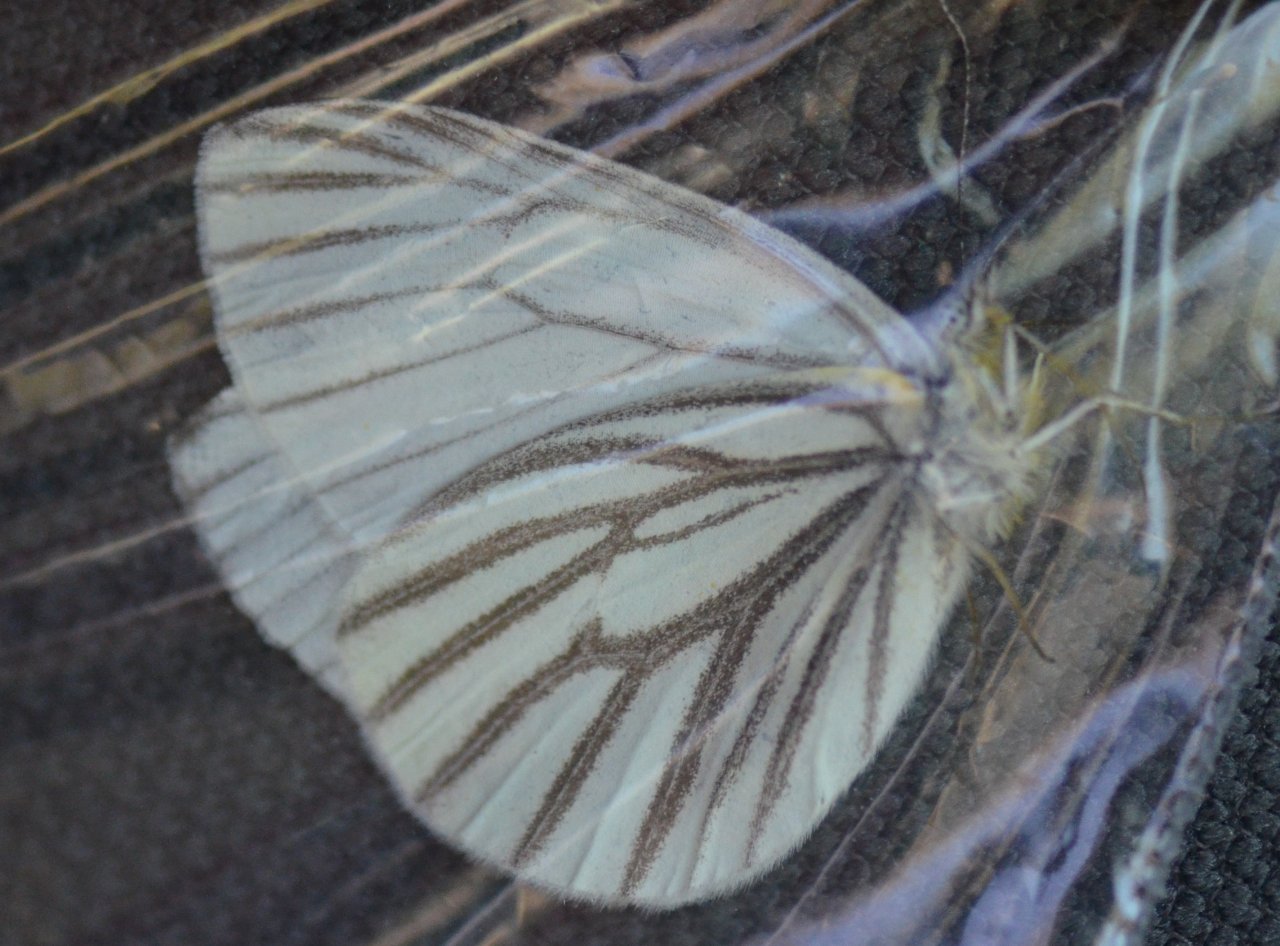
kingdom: Animalia
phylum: Arthropoda
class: Insecta
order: Lepidoptera
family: Pieridae
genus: Pieris
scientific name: Pieris oleracea
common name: Mustard White
